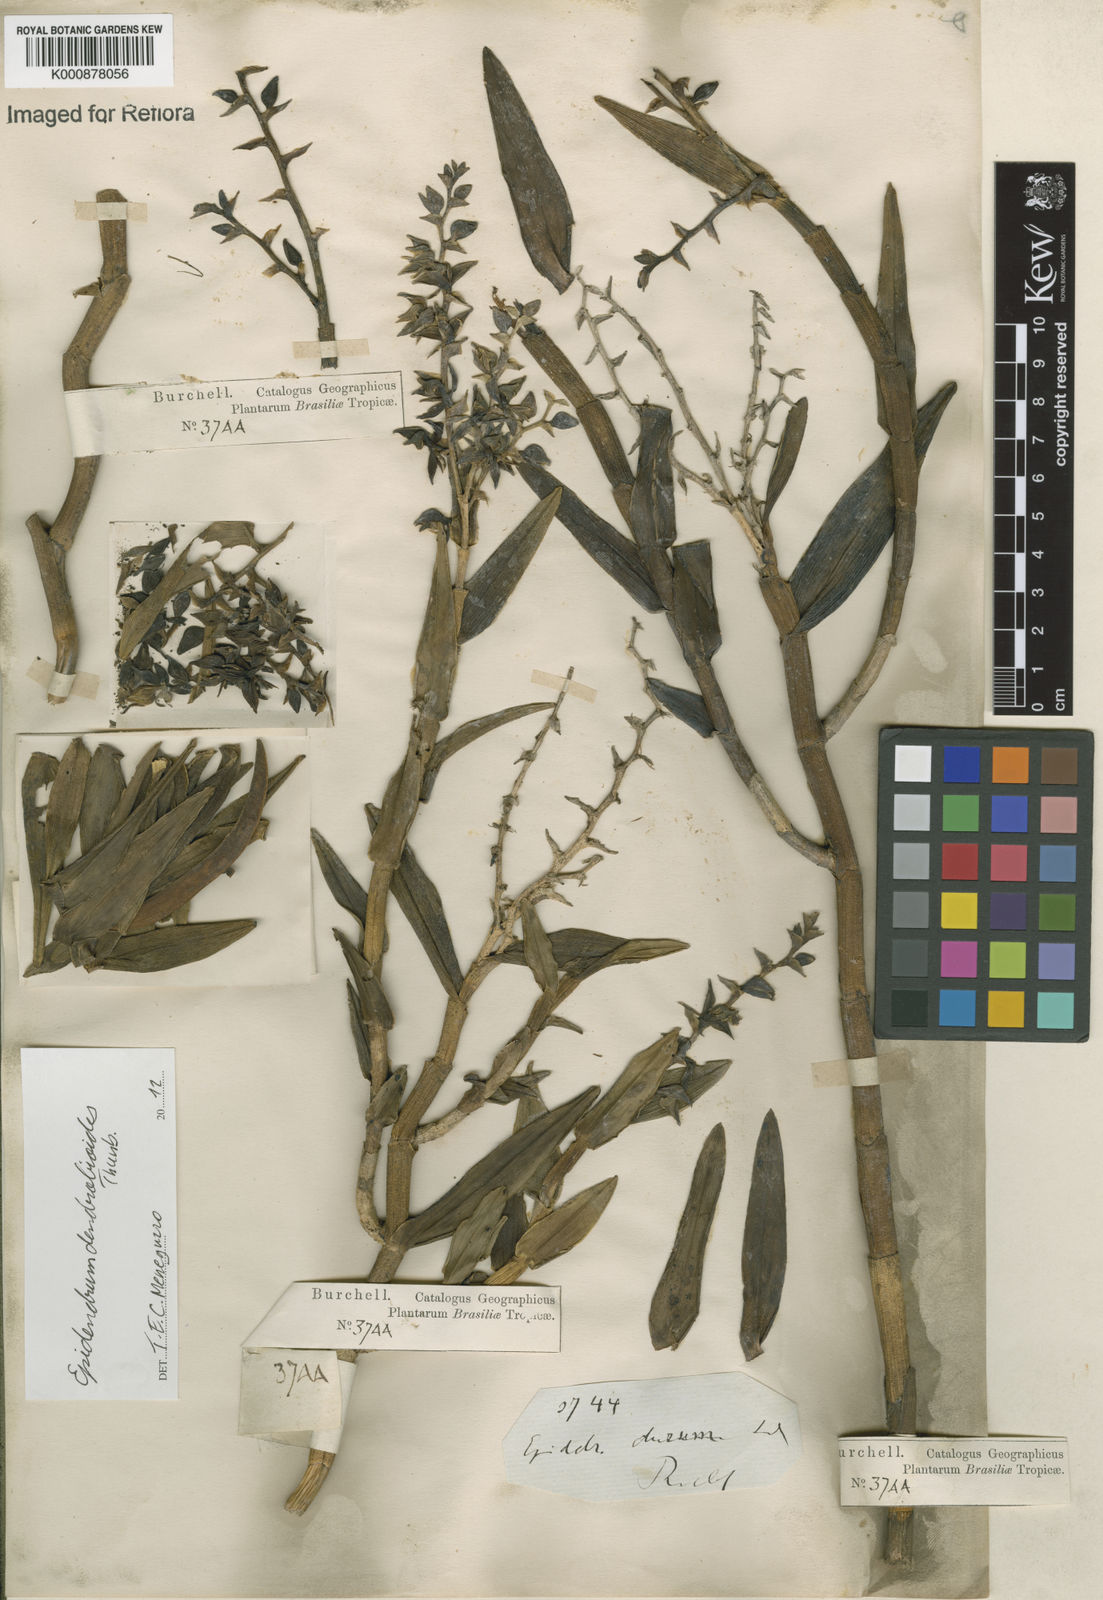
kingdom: Plantae
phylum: Tracheophyta
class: Liliopsida
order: Asparagales
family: Orchidaceae
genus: Epidendrum
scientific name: Epidendrum dendrobioides
